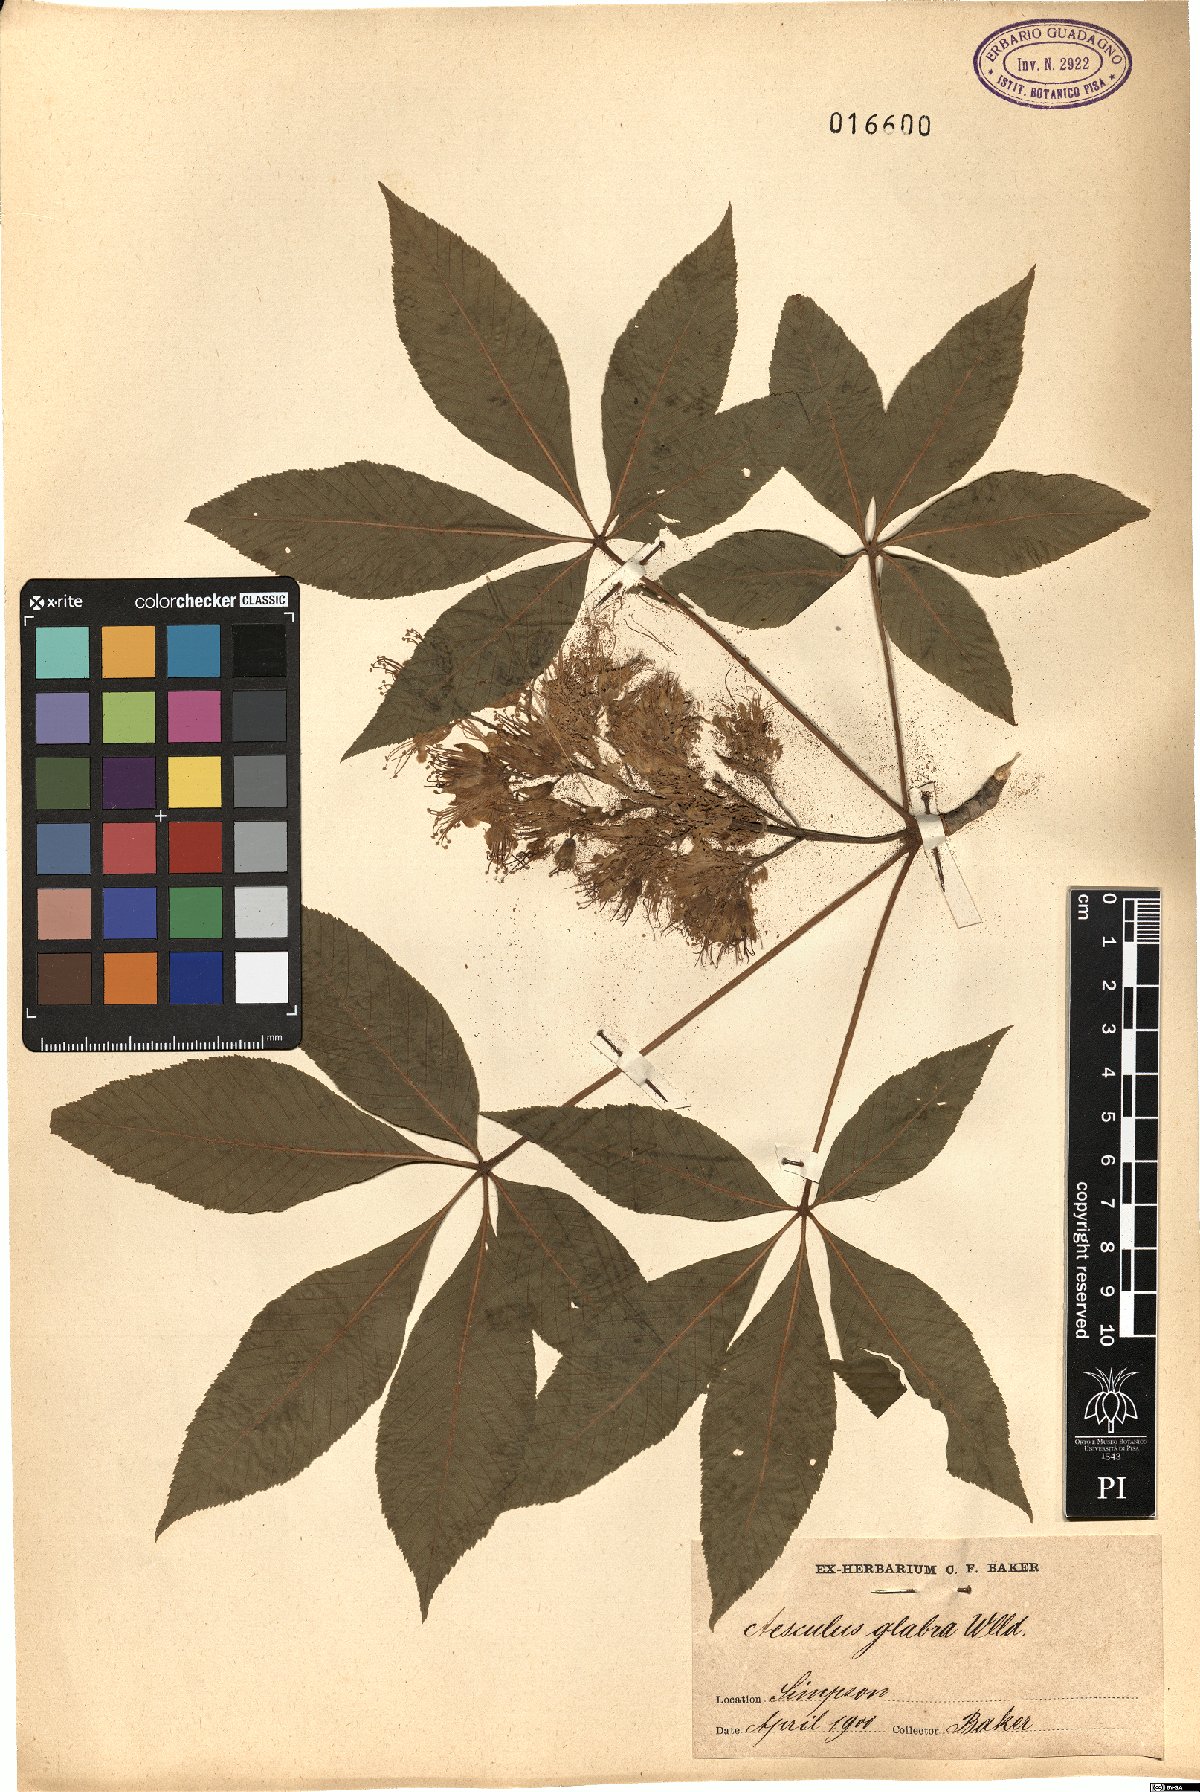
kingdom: Plantae
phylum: Tracheophyta
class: Magnoliopsida
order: Sapindales
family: Sapindaceae
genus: Aesculus
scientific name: Aesculus glabra
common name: Ohio buckeye
